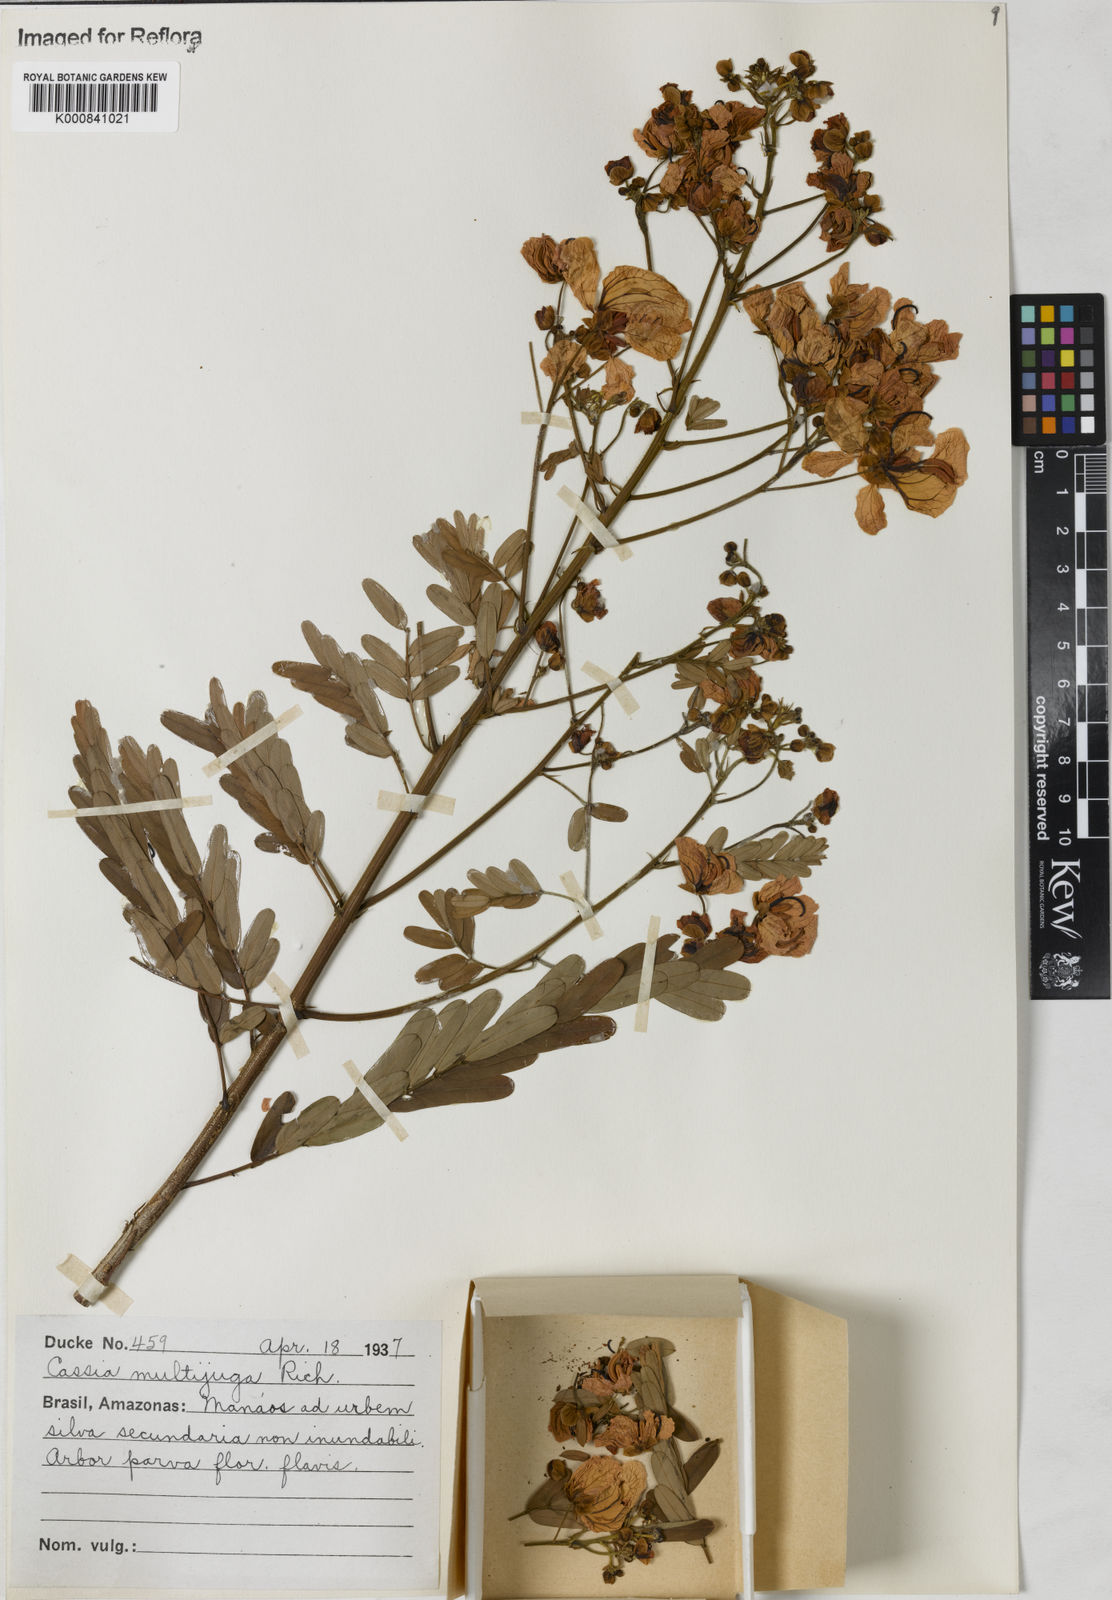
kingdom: Plantae
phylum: Tracheophyta
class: Magnoliopsida
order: Fabales
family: Fabaceae
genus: Senna
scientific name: Senna multijuga
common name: False sicklepod
